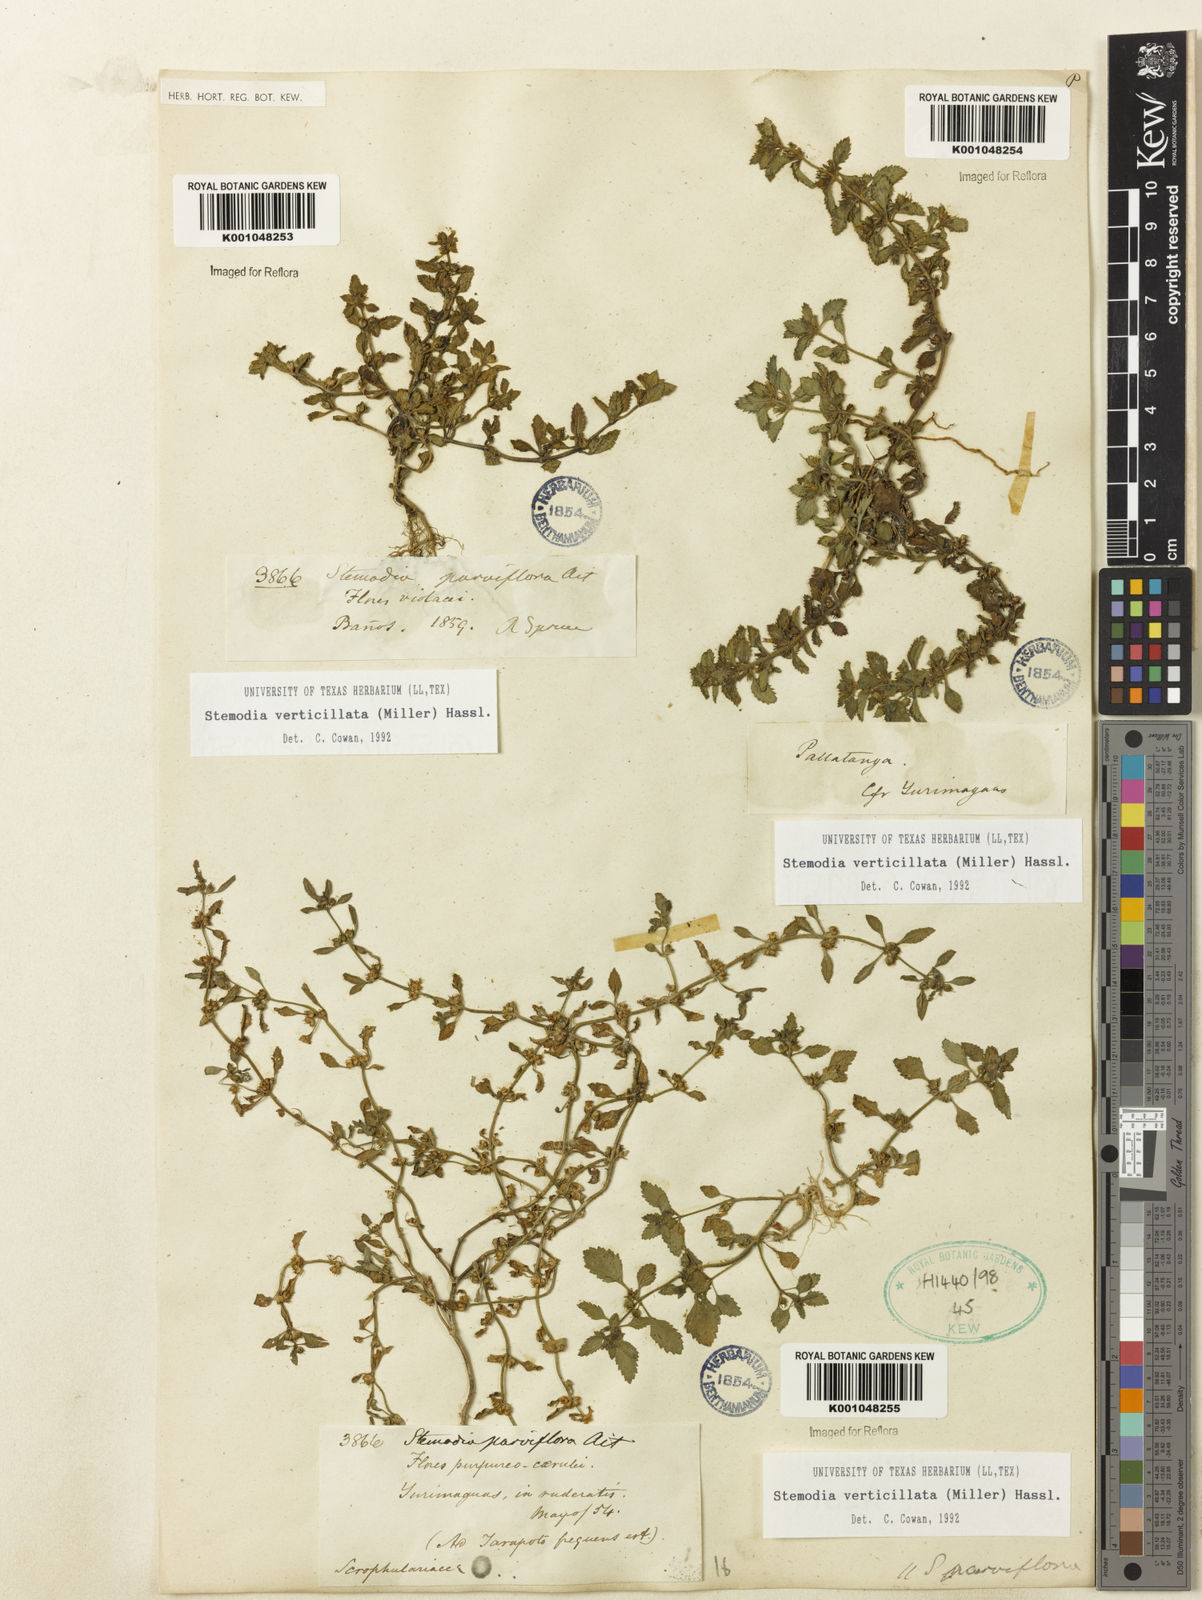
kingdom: Plantae
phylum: Tracheophyta
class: Magnoliopsida
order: Lamiales
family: Plantaginaceae
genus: Stemodia
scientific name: Stemodia verticillata
